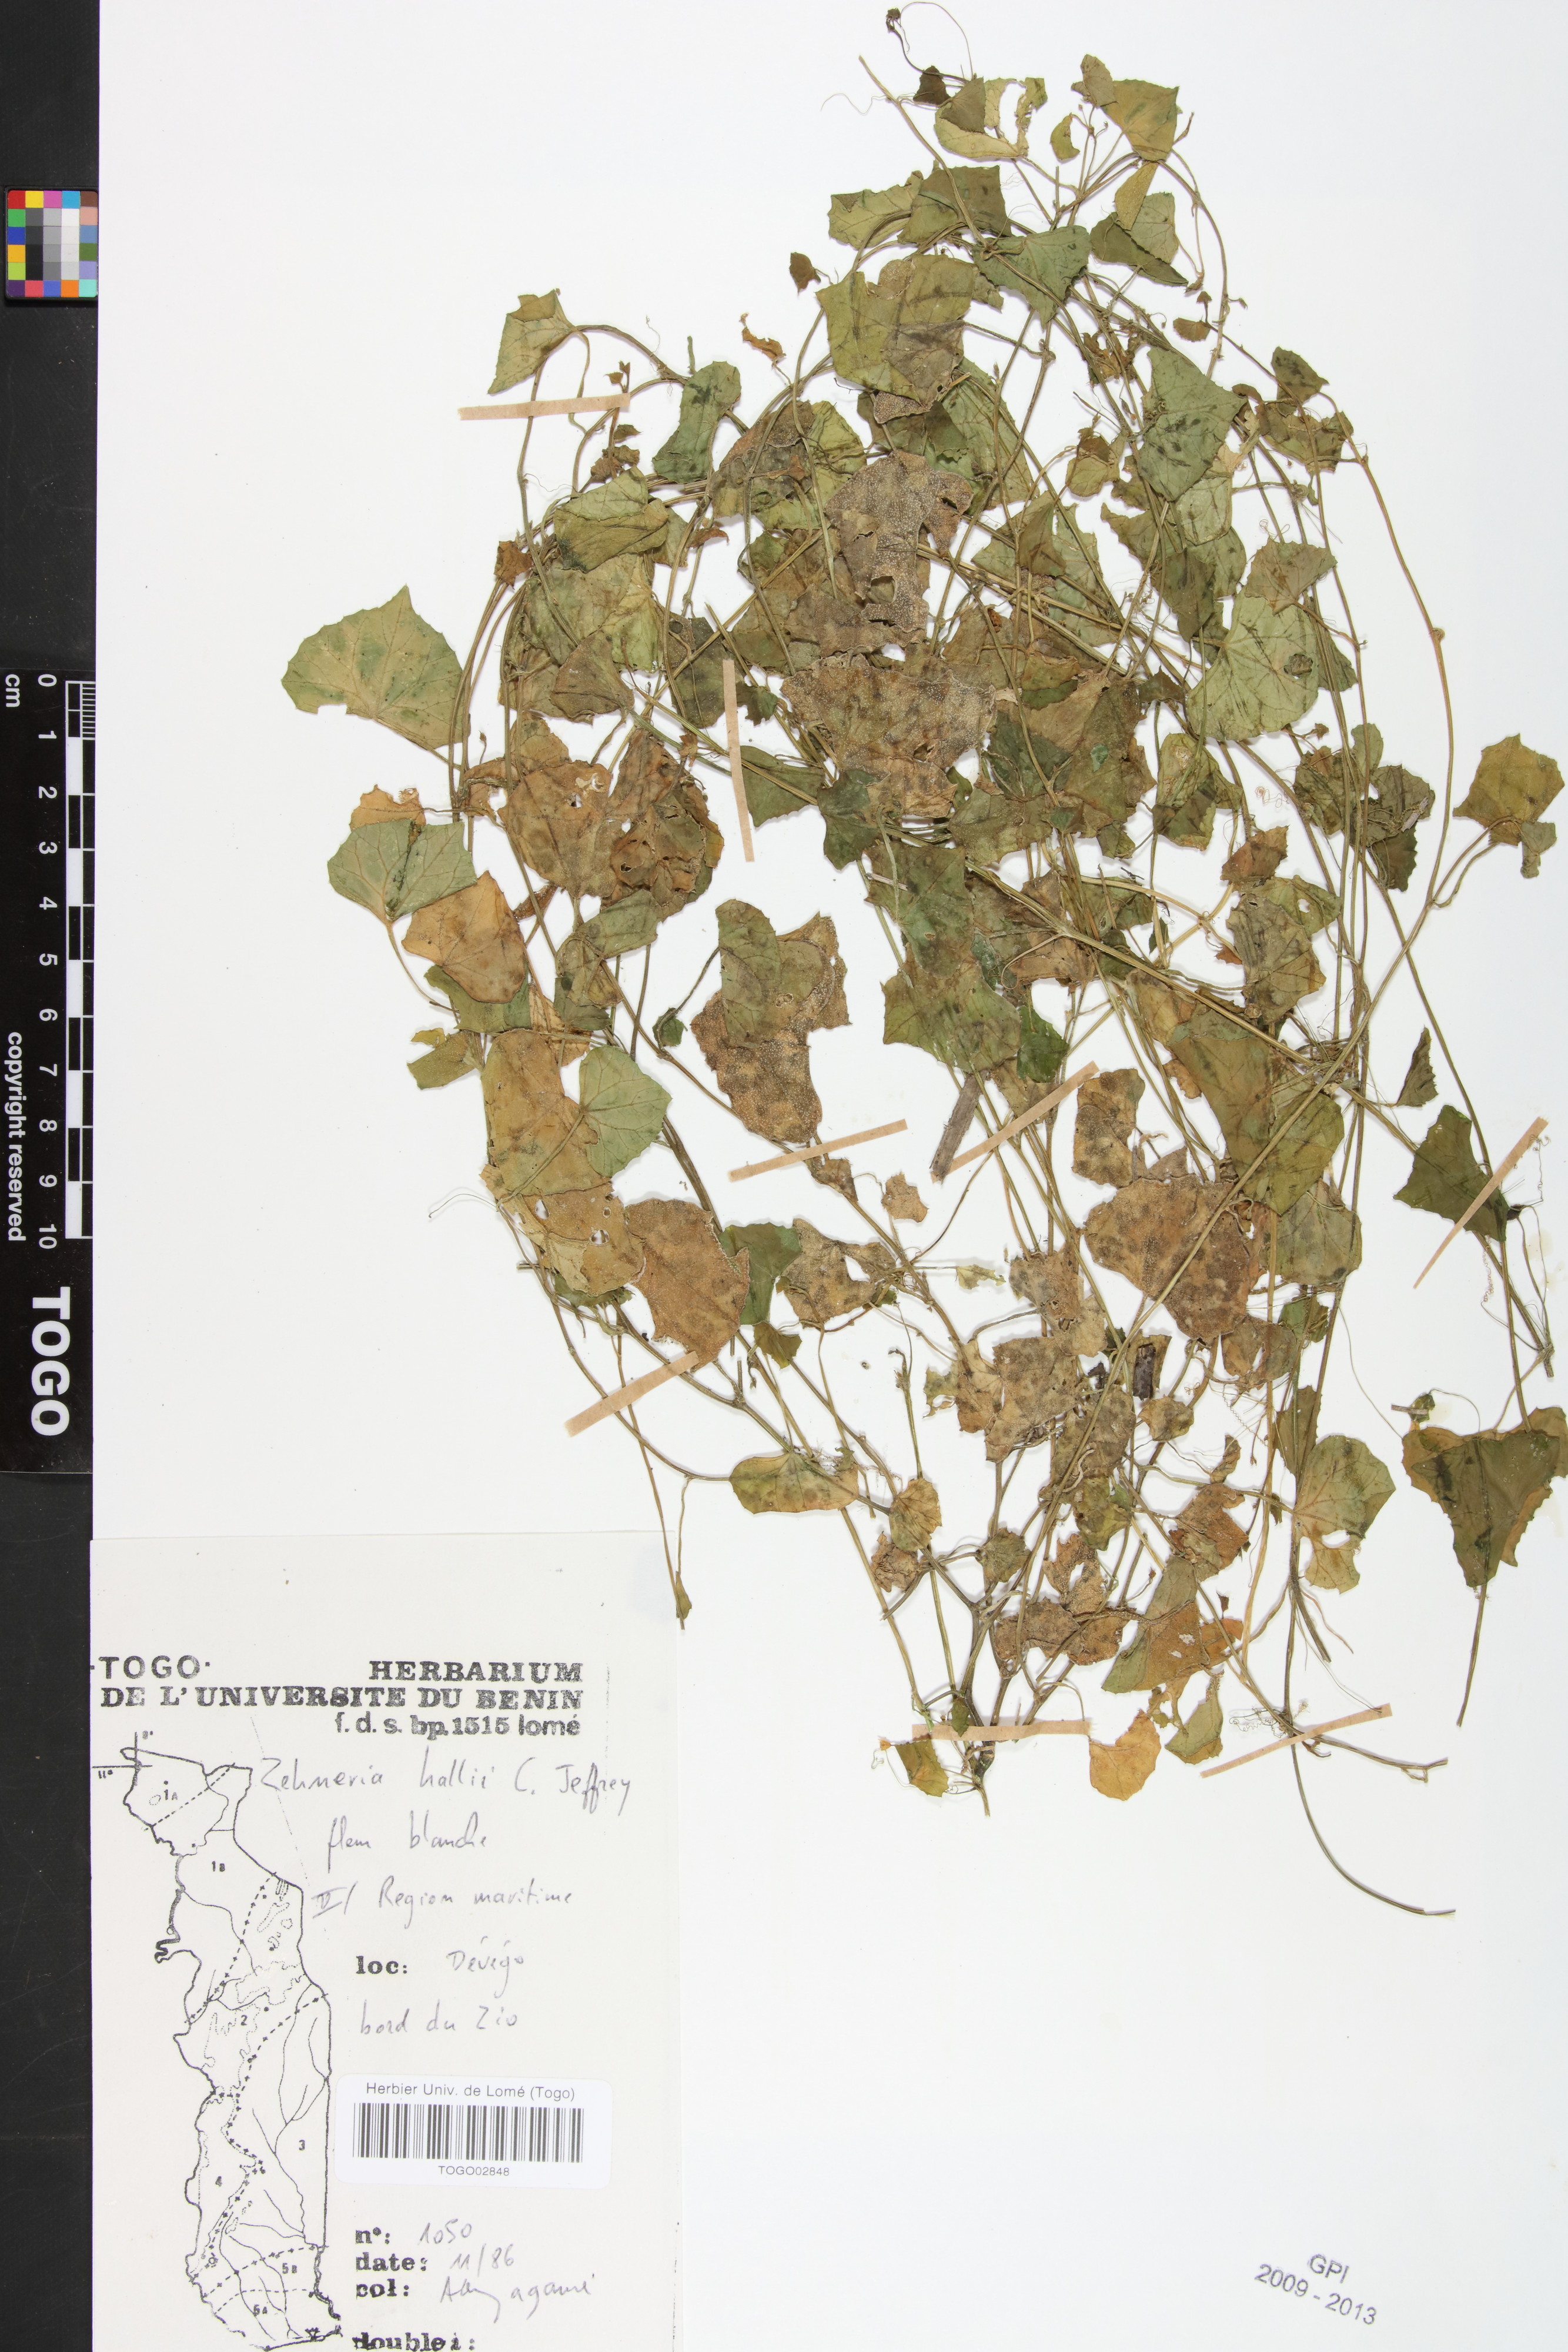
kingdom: Plantae
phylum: Tracheophyta
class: Magnoliopsida
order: Cucurbitales
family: Cucurbitaceae
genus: Zehneria
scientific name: Zehneria hallii
